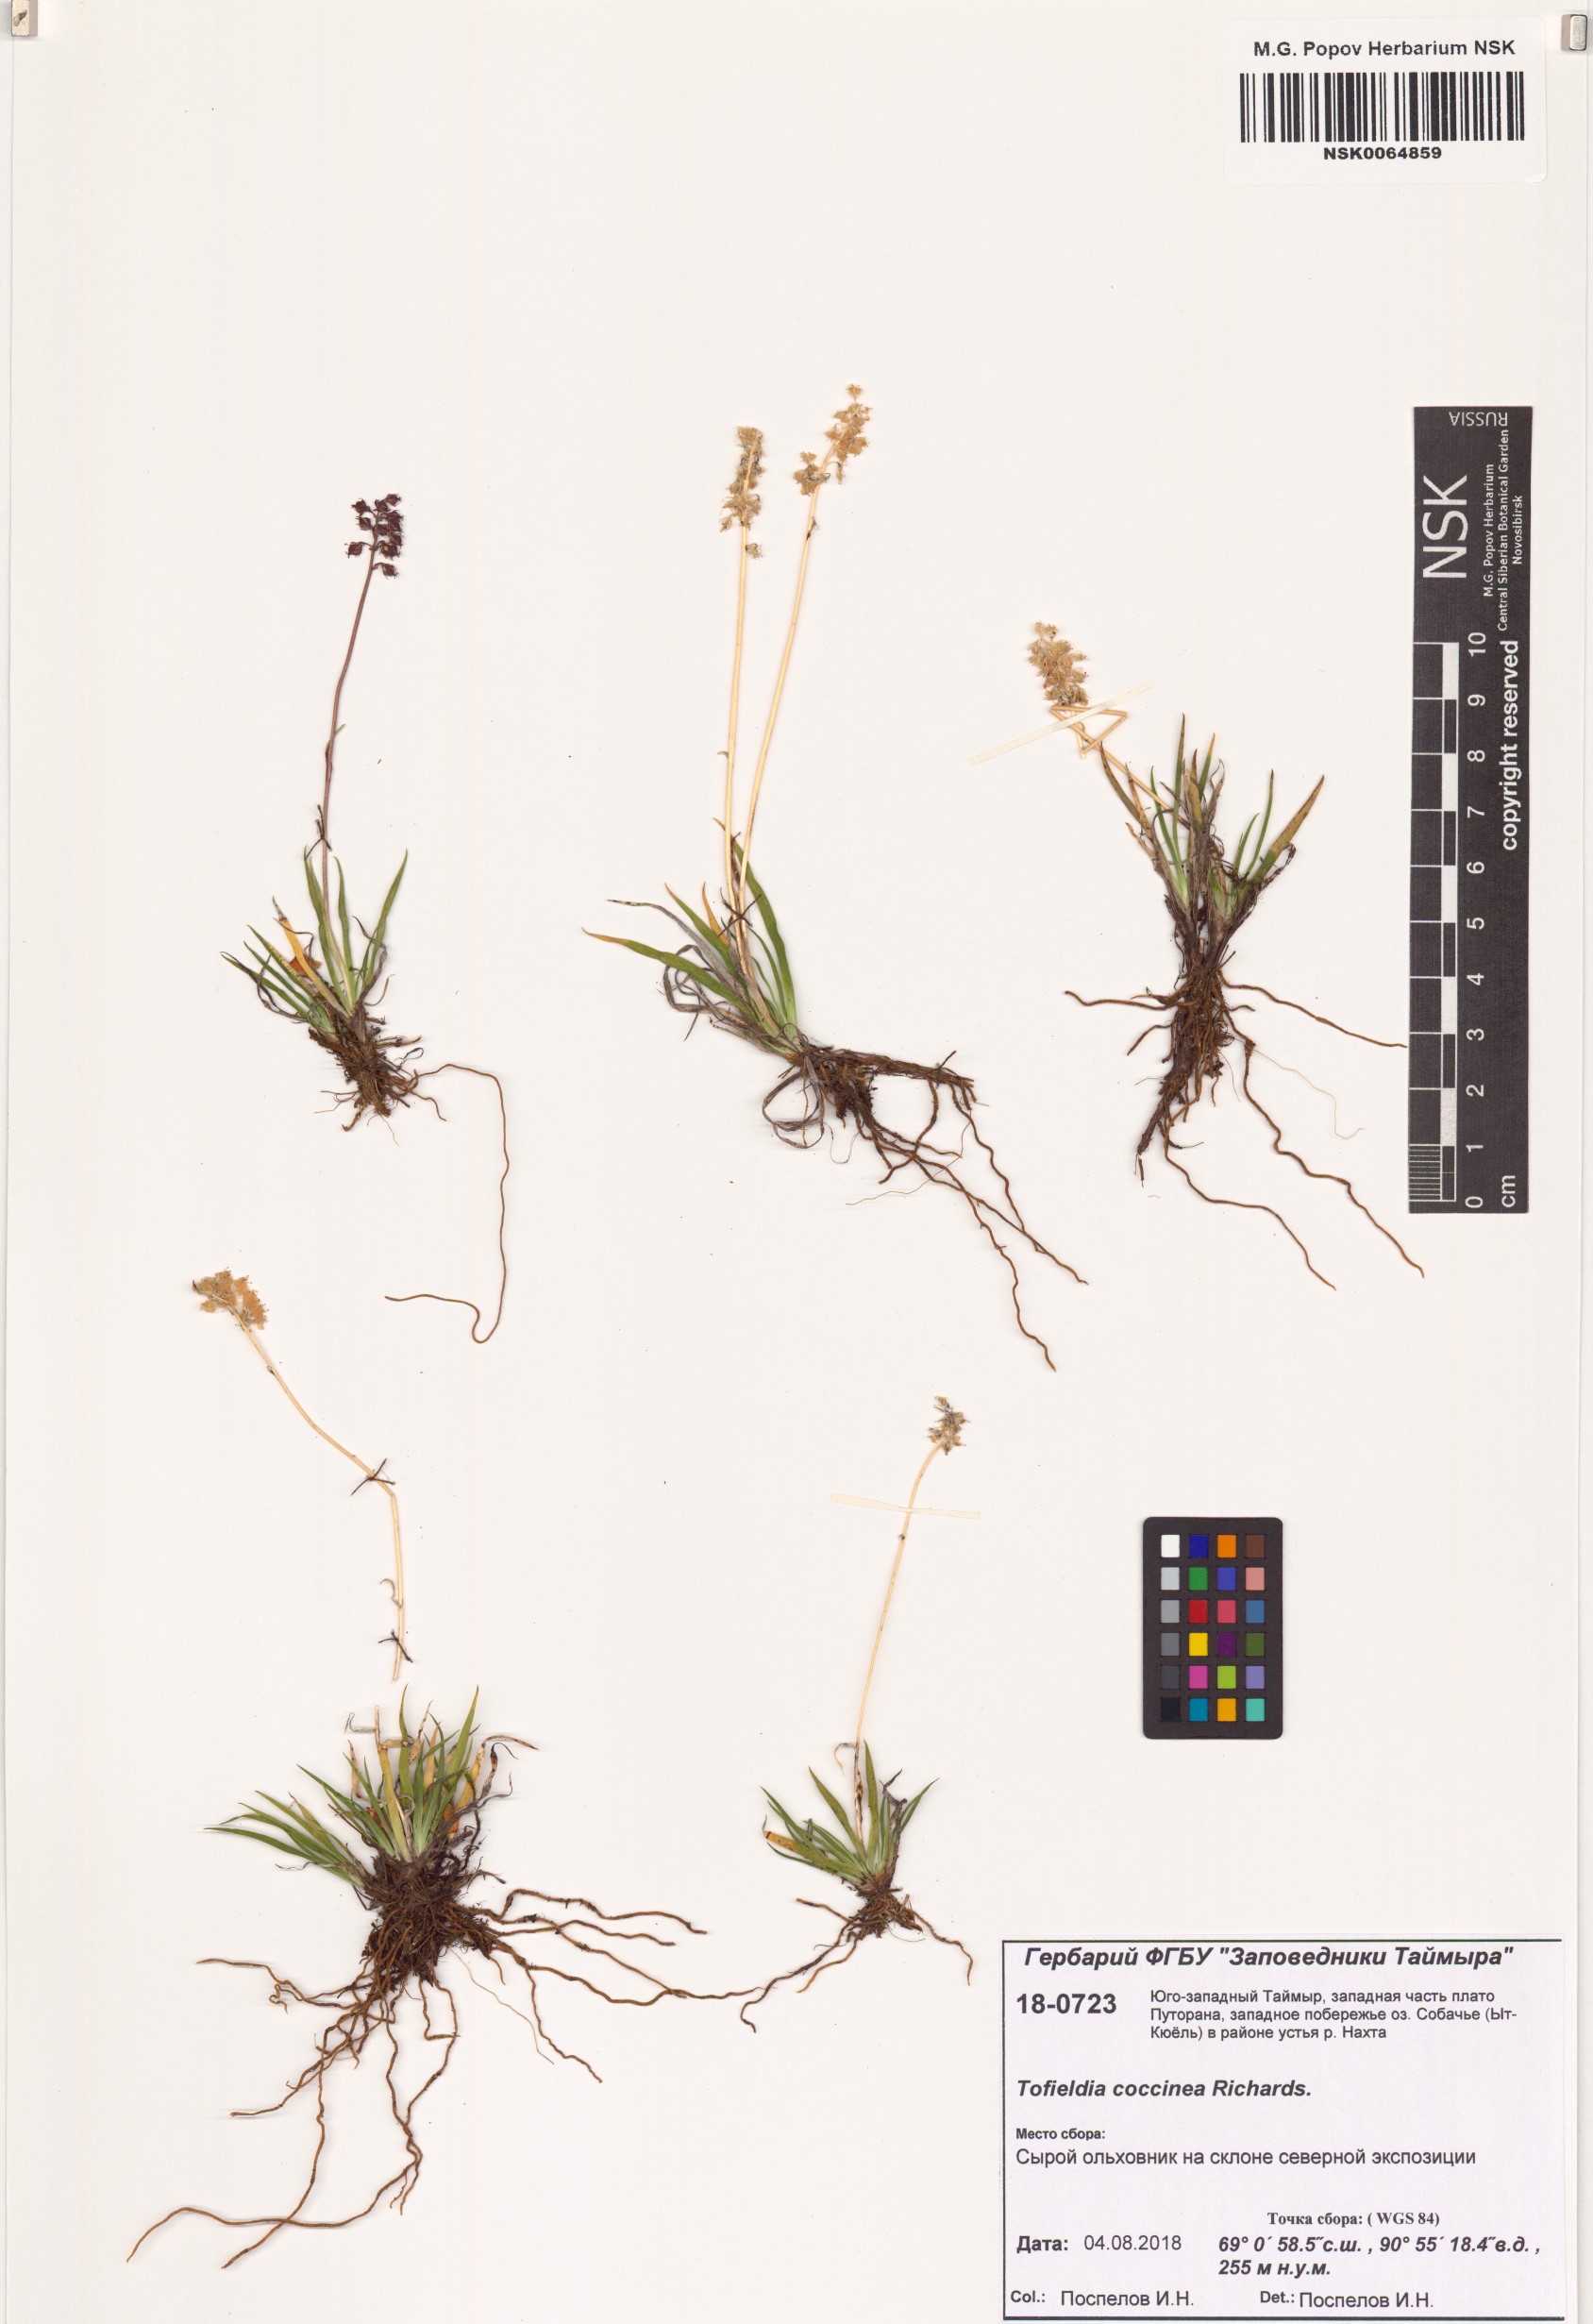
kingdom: Plantae
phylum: Tracheophyta
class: Liliopsida
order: Alismatales
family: Tofieldiaceae
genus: Tofieldia
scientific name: Tofieldia coccinea
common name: Northern false asphodel
